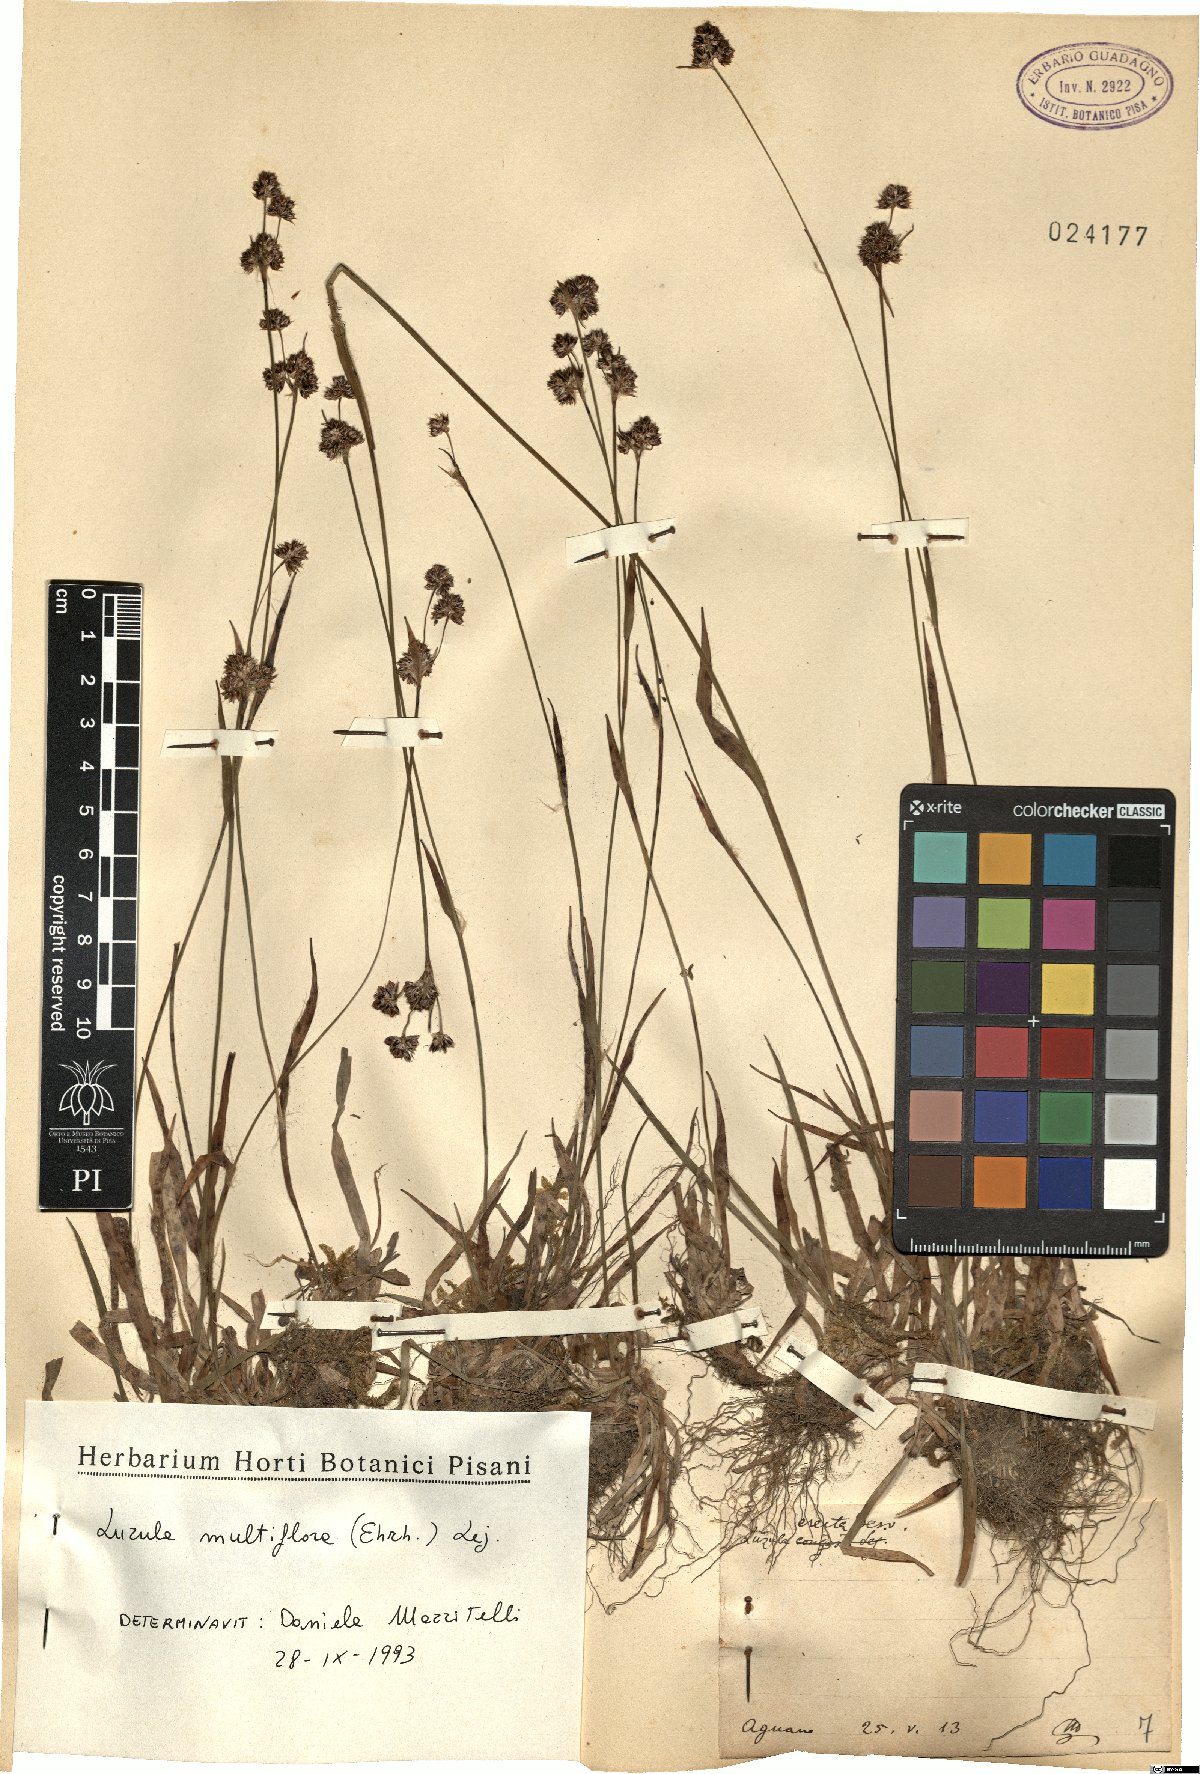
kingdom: Plantae
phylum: Tracheophyta
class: Liliopsida
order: Poales
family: Juncaceae
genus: Luzula
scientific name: Luzula multiflora
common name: Heath wood-rush
